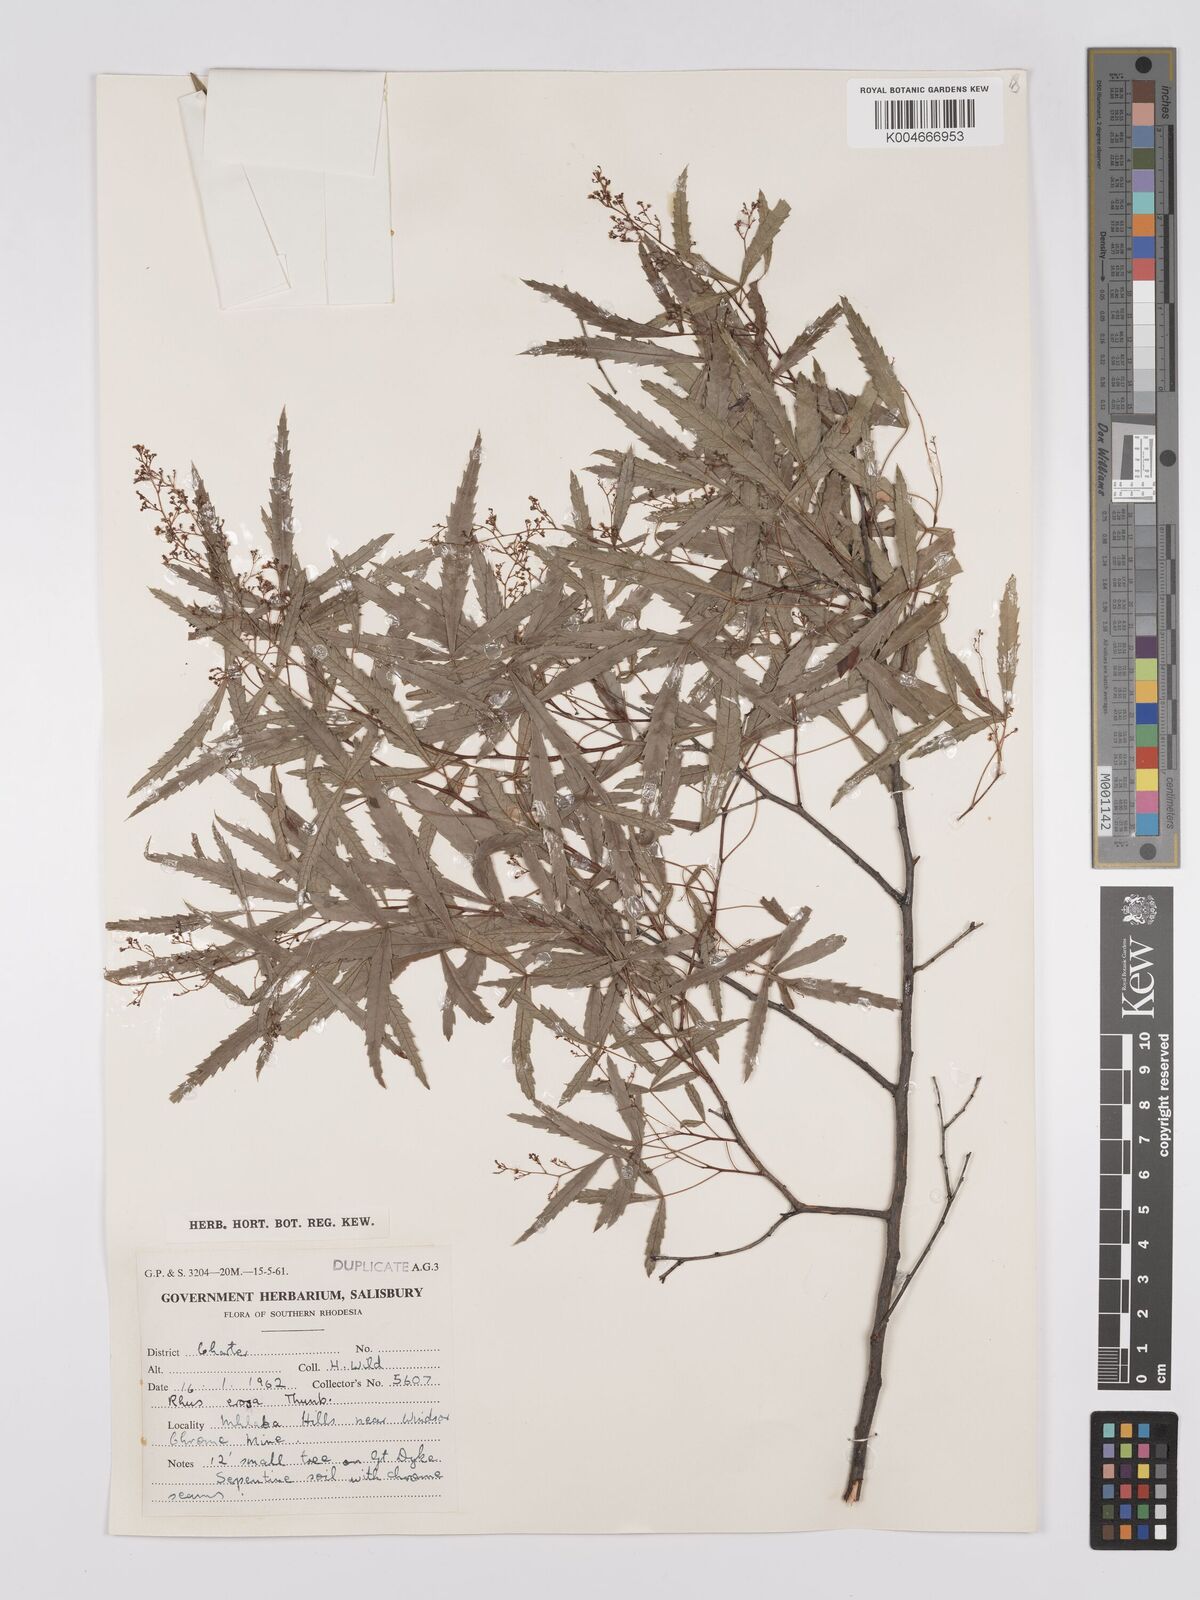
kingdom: Plantae
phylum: Tracheophyta
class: Magnoliopsida
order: Sapindales
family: Anacardiaceae
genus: Rhus
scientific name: Rhus
